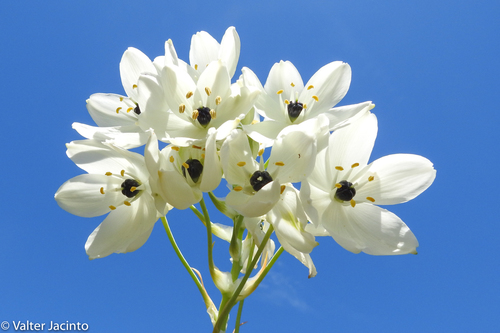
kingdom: Plantae
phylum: Tracheophyta
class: Liliopsida
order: Asparagales
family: Asparagaceae
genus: Ornithogalum
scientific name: Ornithogalum arabicum
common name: Arabian starflower
